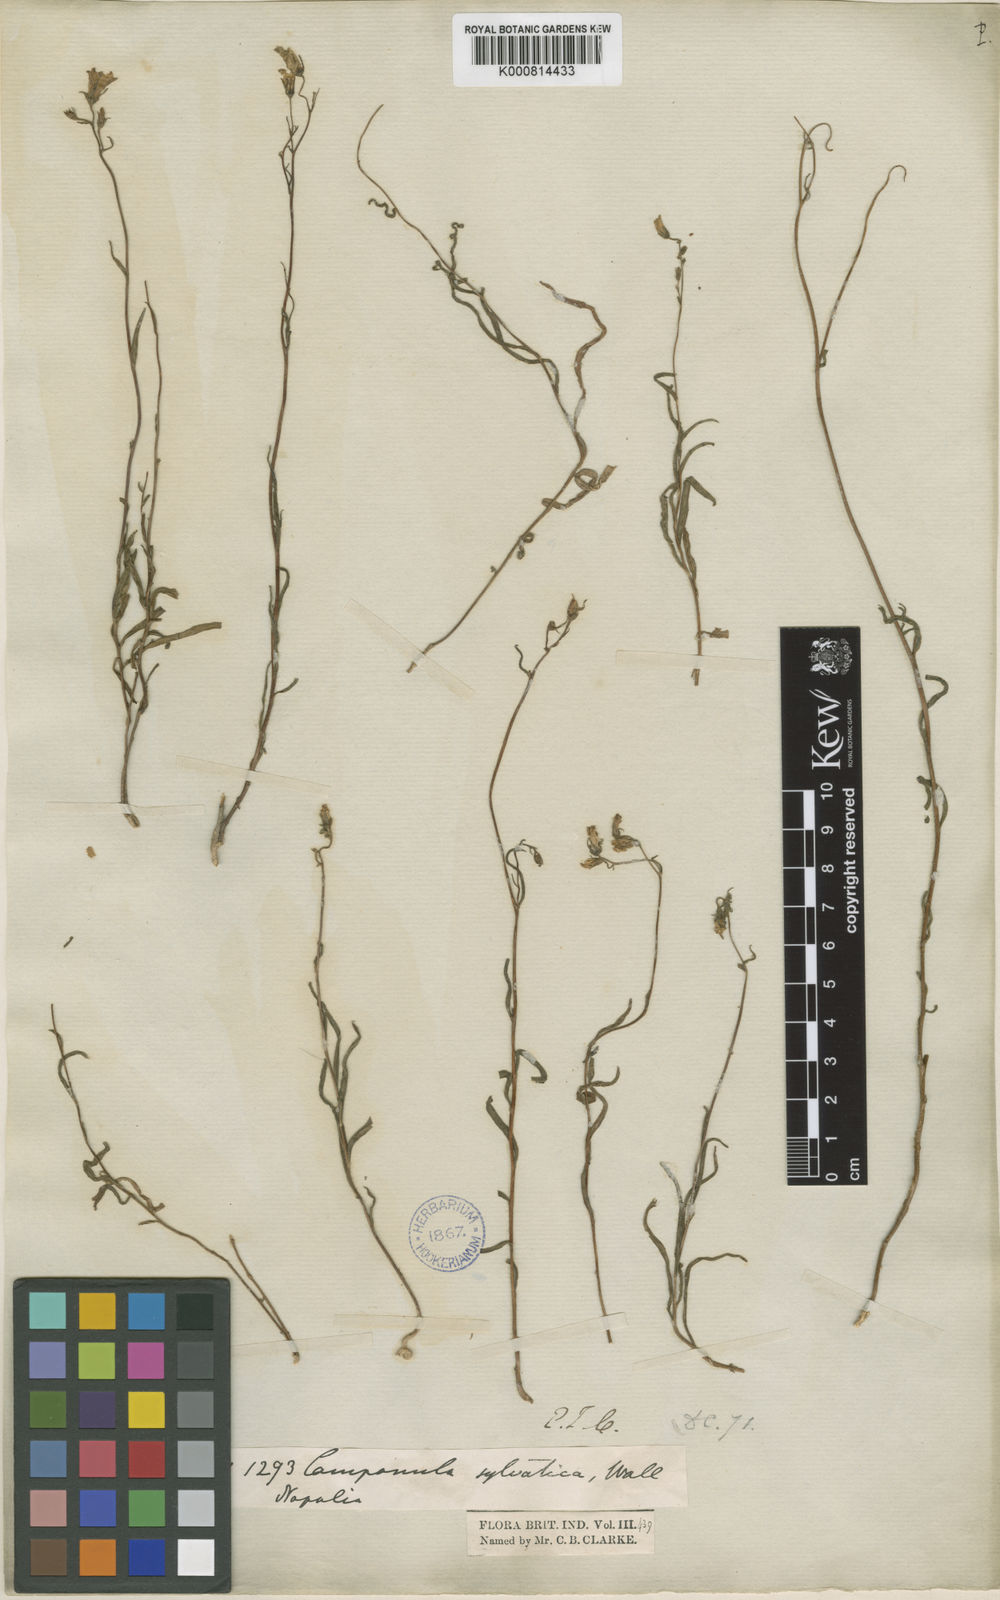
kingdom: Plantae
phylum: Tracheophyta
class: Magnoliopsida
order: Asterales
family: Campanulaceae
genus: Campanula
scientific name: Campanula sylvatica
